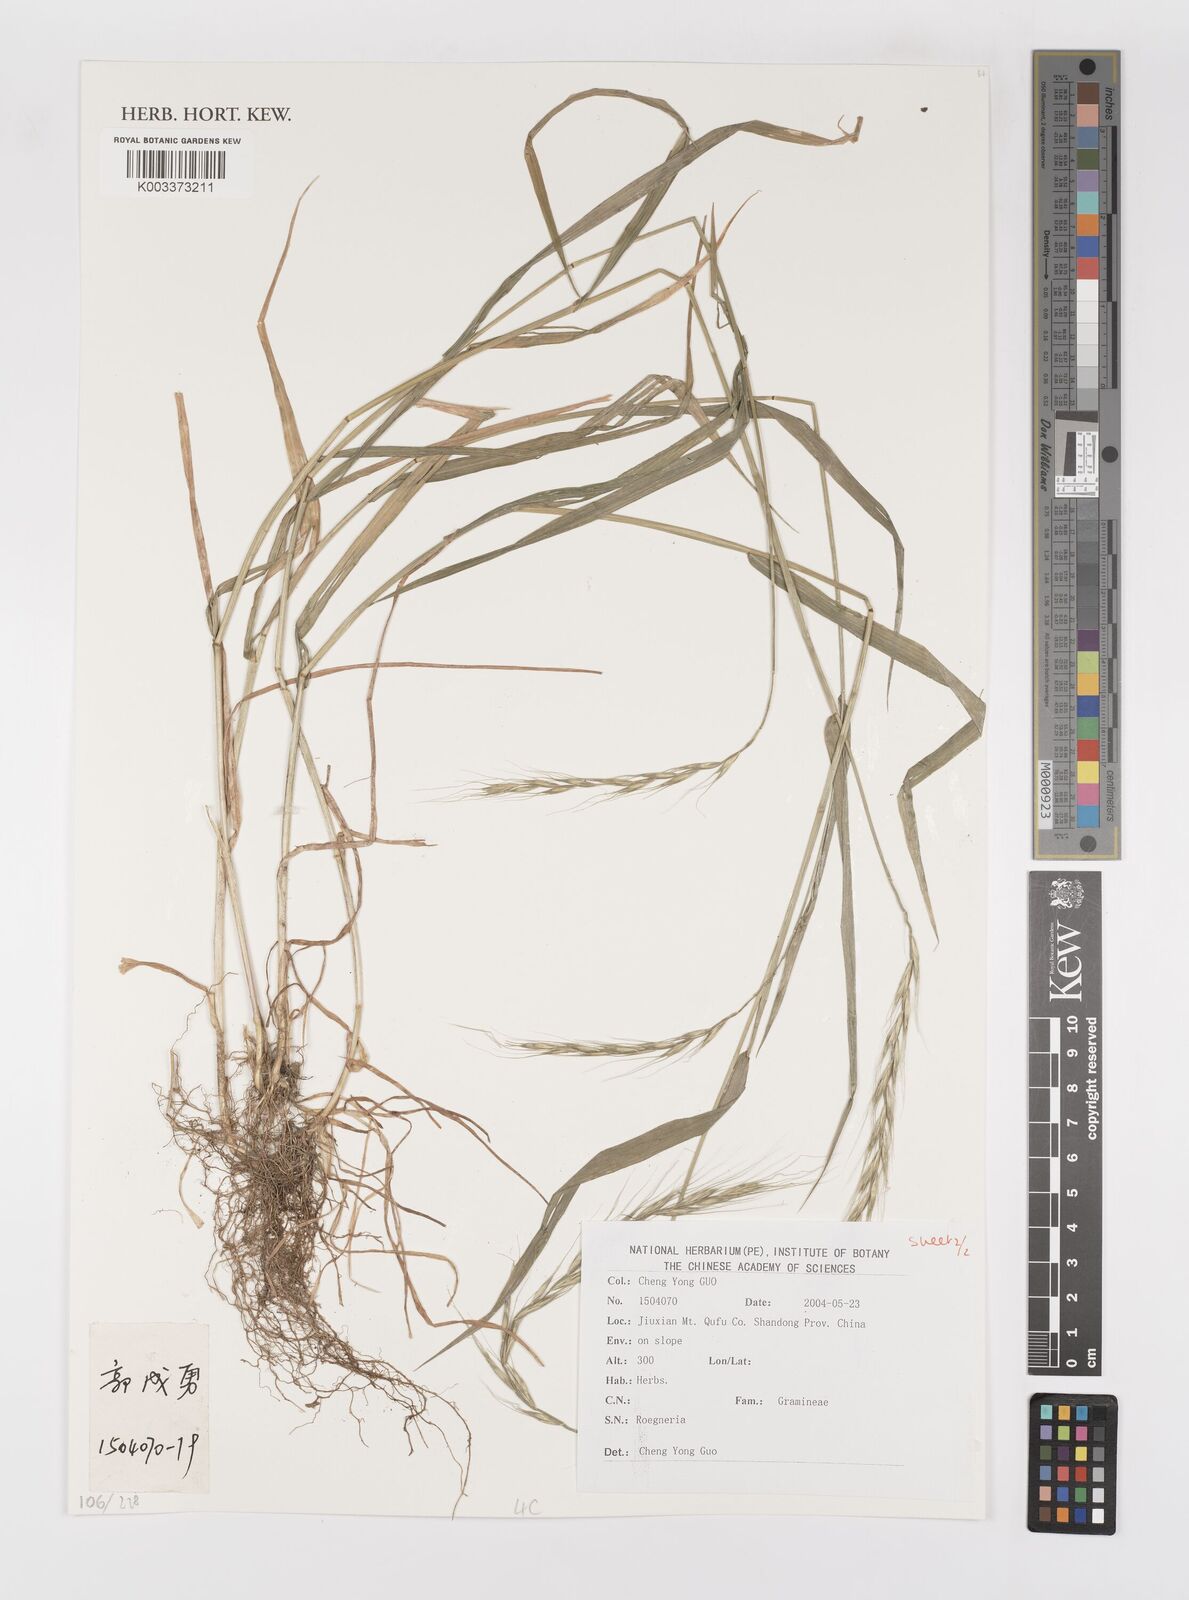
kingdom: Plantae
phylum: Tracheophyta
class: Liliopsida
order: Poales
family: Poaceae
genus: Elymus
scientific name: Elymus
